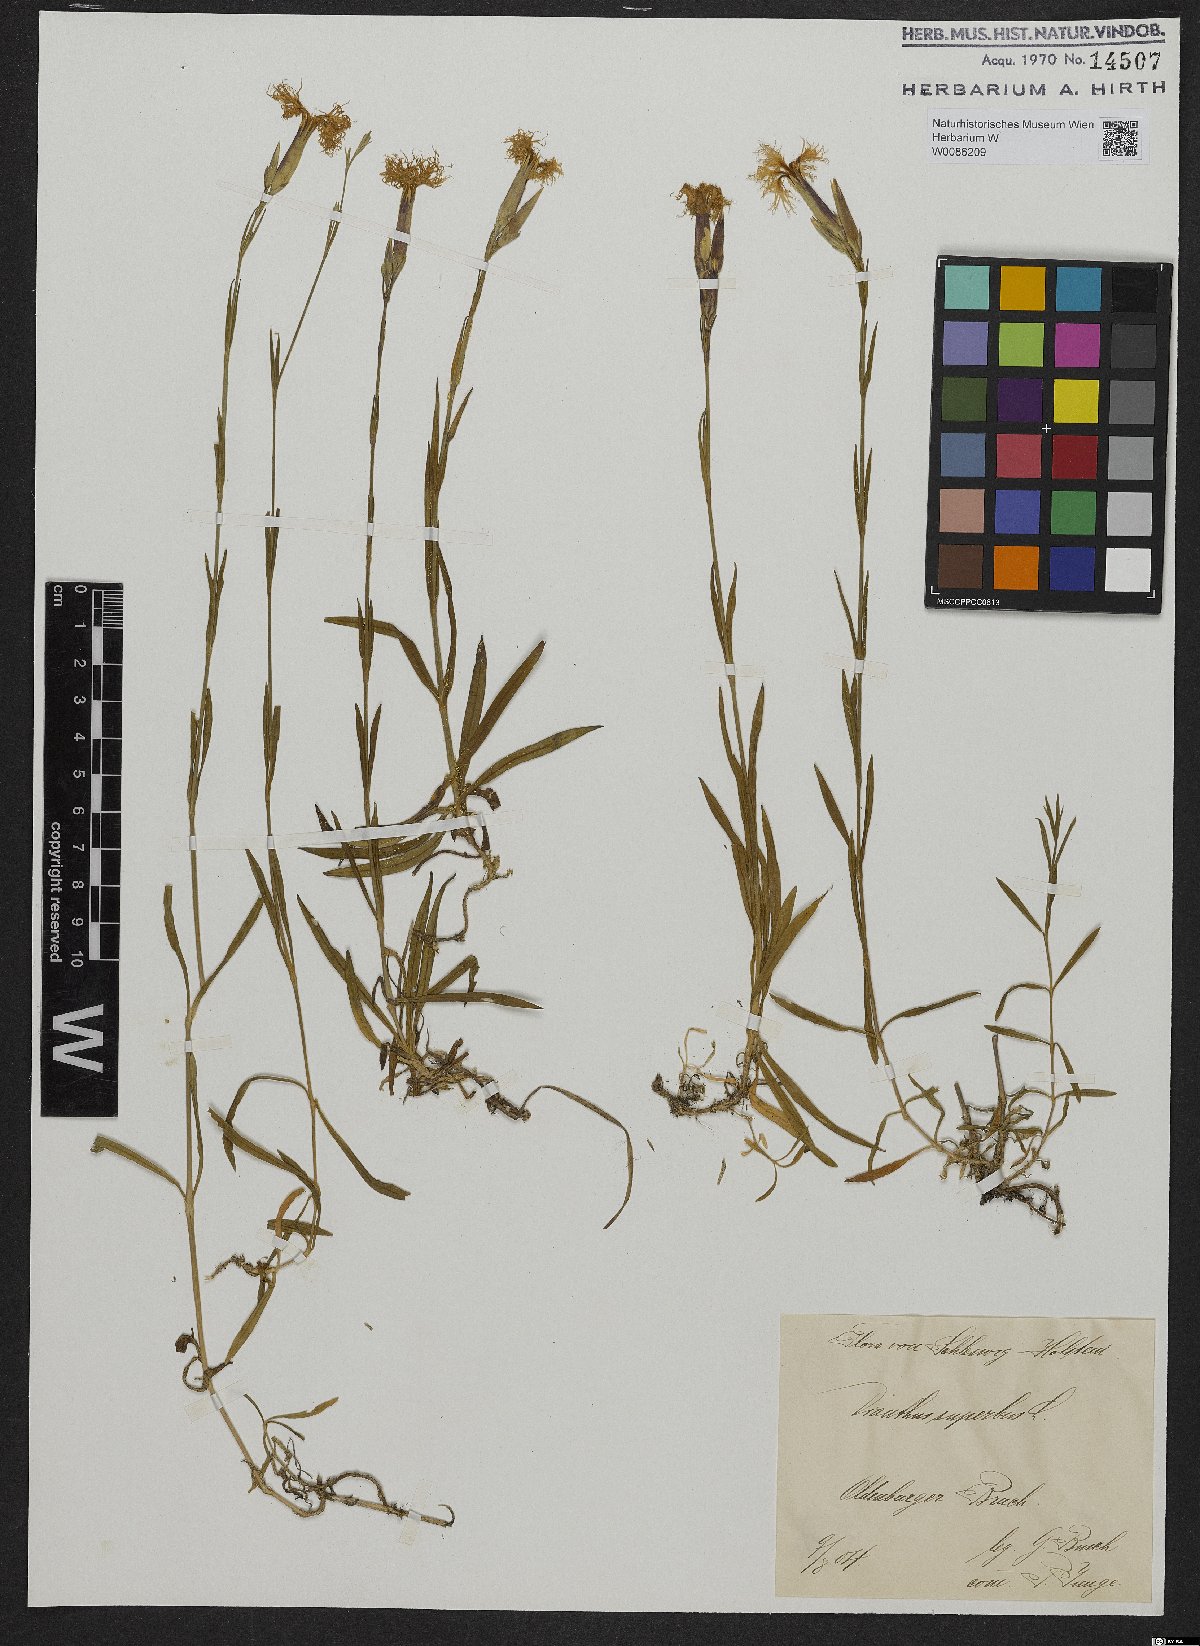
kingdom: Plantae
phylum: Tracheophyta
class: Magnoliopsida
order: Caryophyllales
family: Caryophyllaceae
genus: Dianthus
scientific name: Dianthus superbus
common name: Fringed pink
